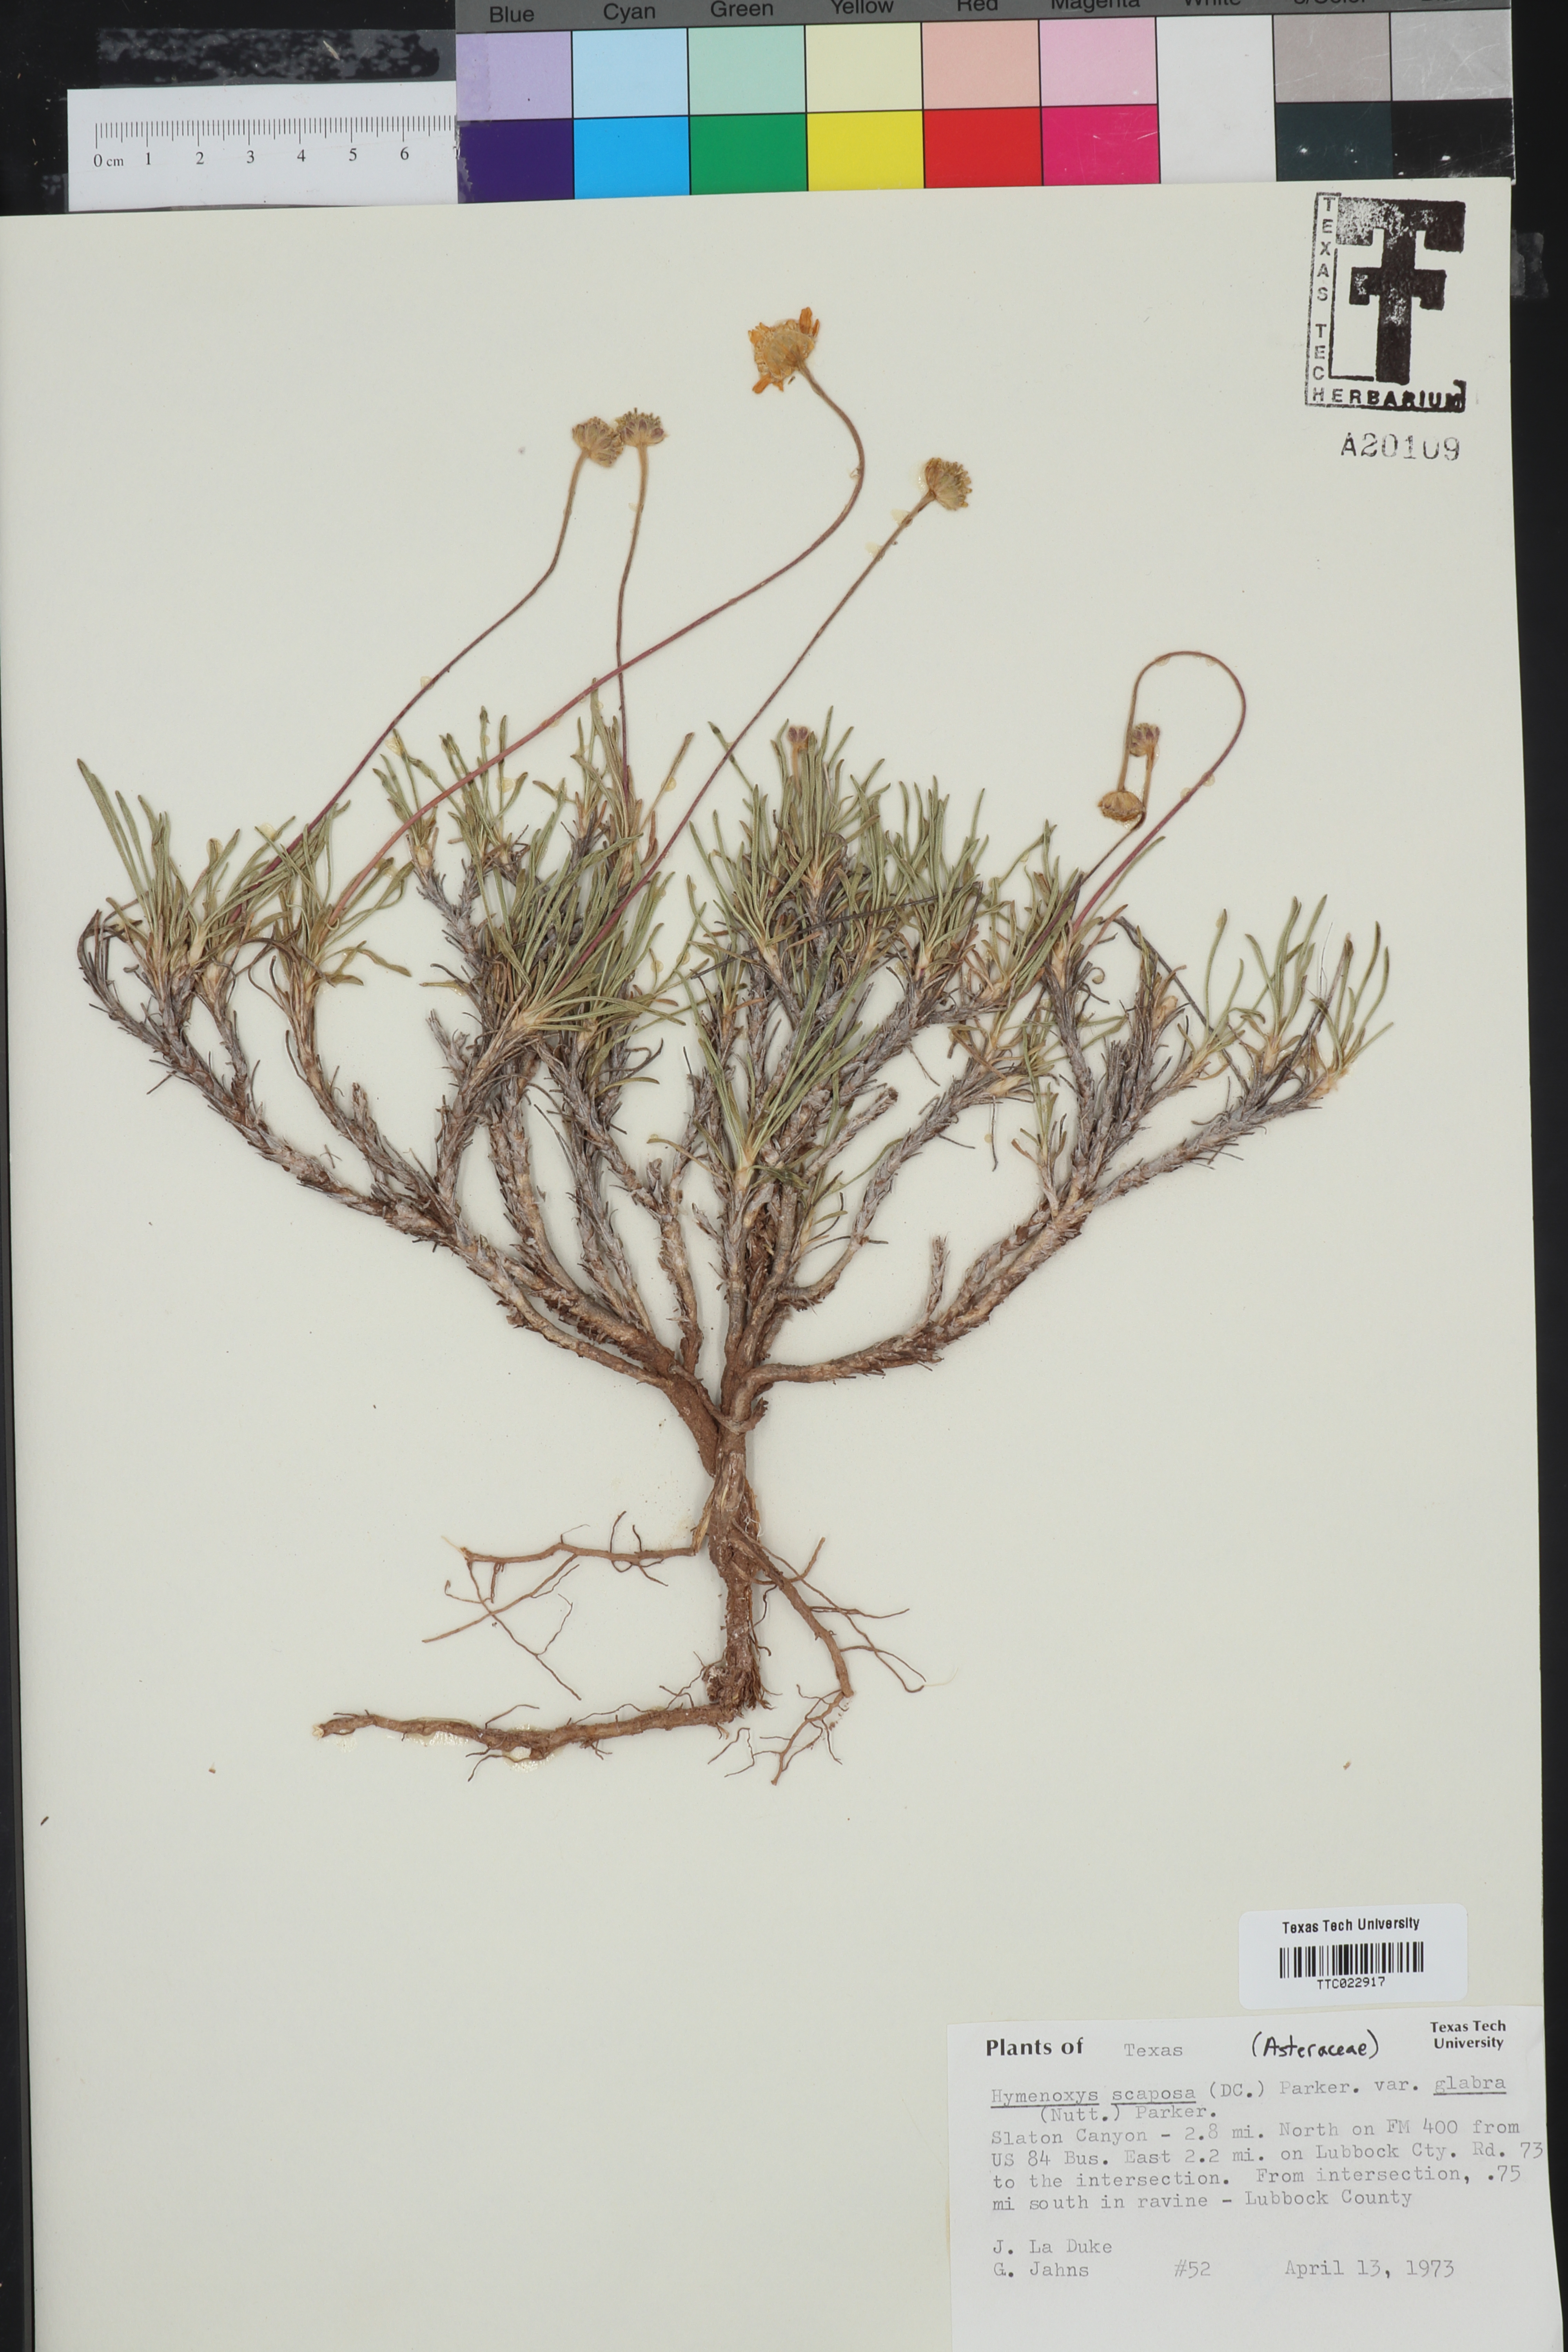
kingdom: Plantae
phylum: Tracheophyta
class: Magnoliopsida
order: Asterales
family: Asteraceae
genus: Tetraneuris
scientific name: Tetraneuris scaposa
